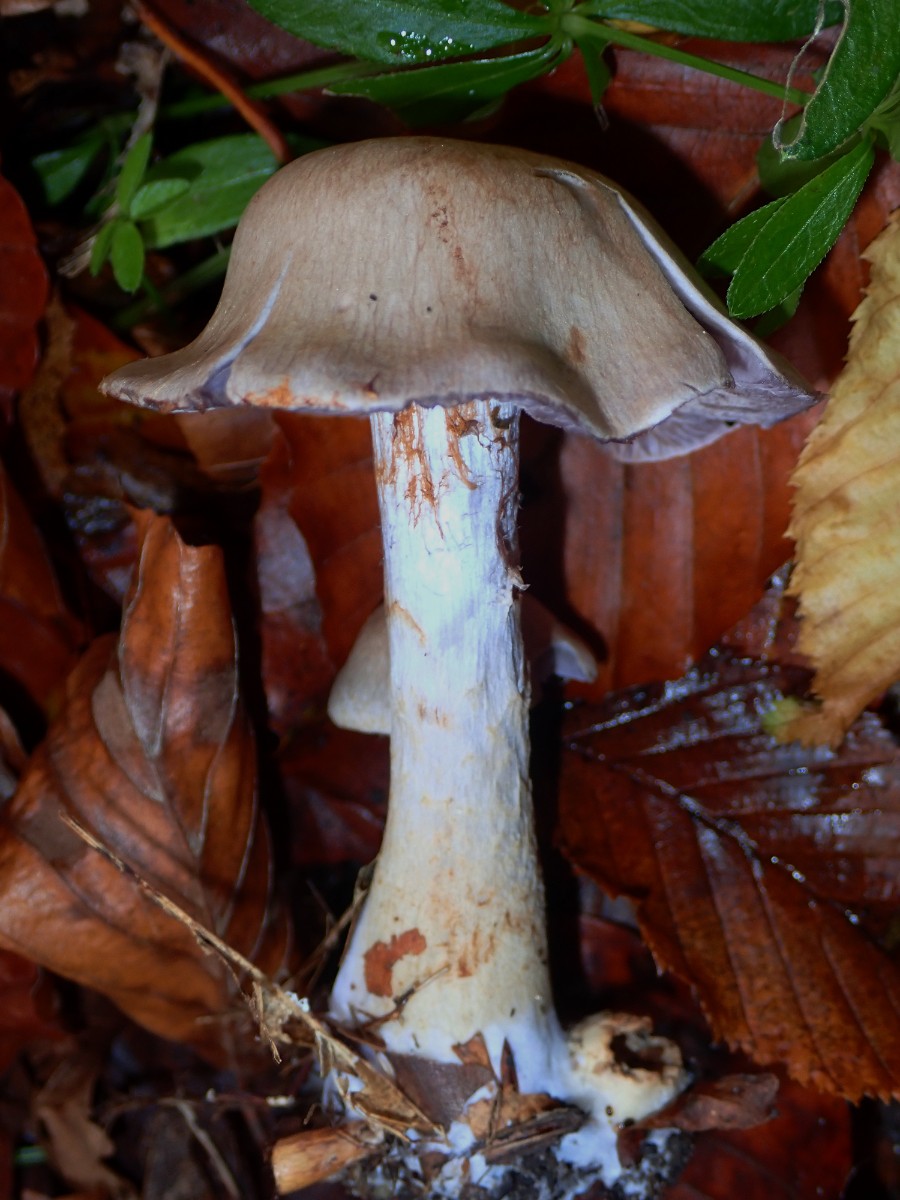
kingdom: Fungi
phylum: Basidiomycota
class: Agaricomycetes
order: Agaricales
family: Cortinariaceae
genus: Cortinarius
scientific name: Cortinarius
